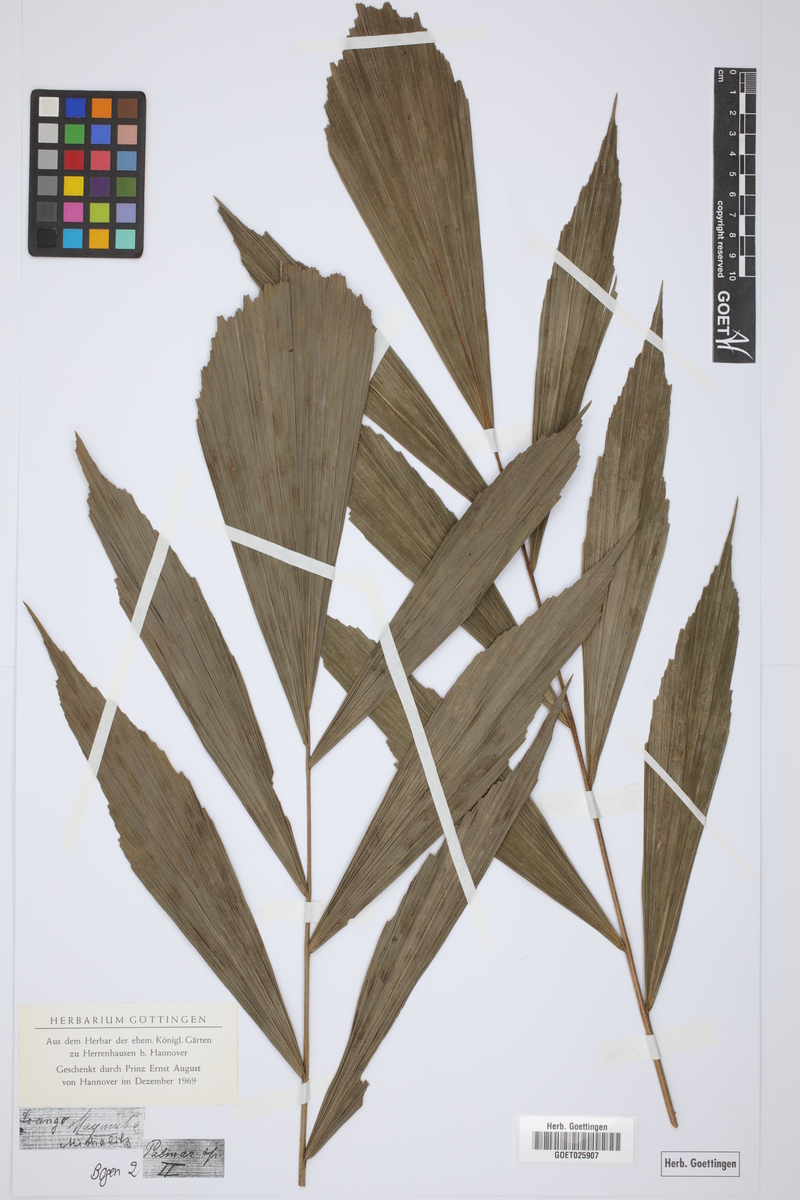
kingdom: Plantae
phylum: Tracheophyta
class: Liliopsida
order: Arecales
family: Arecaceae
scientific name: Arecaceae
